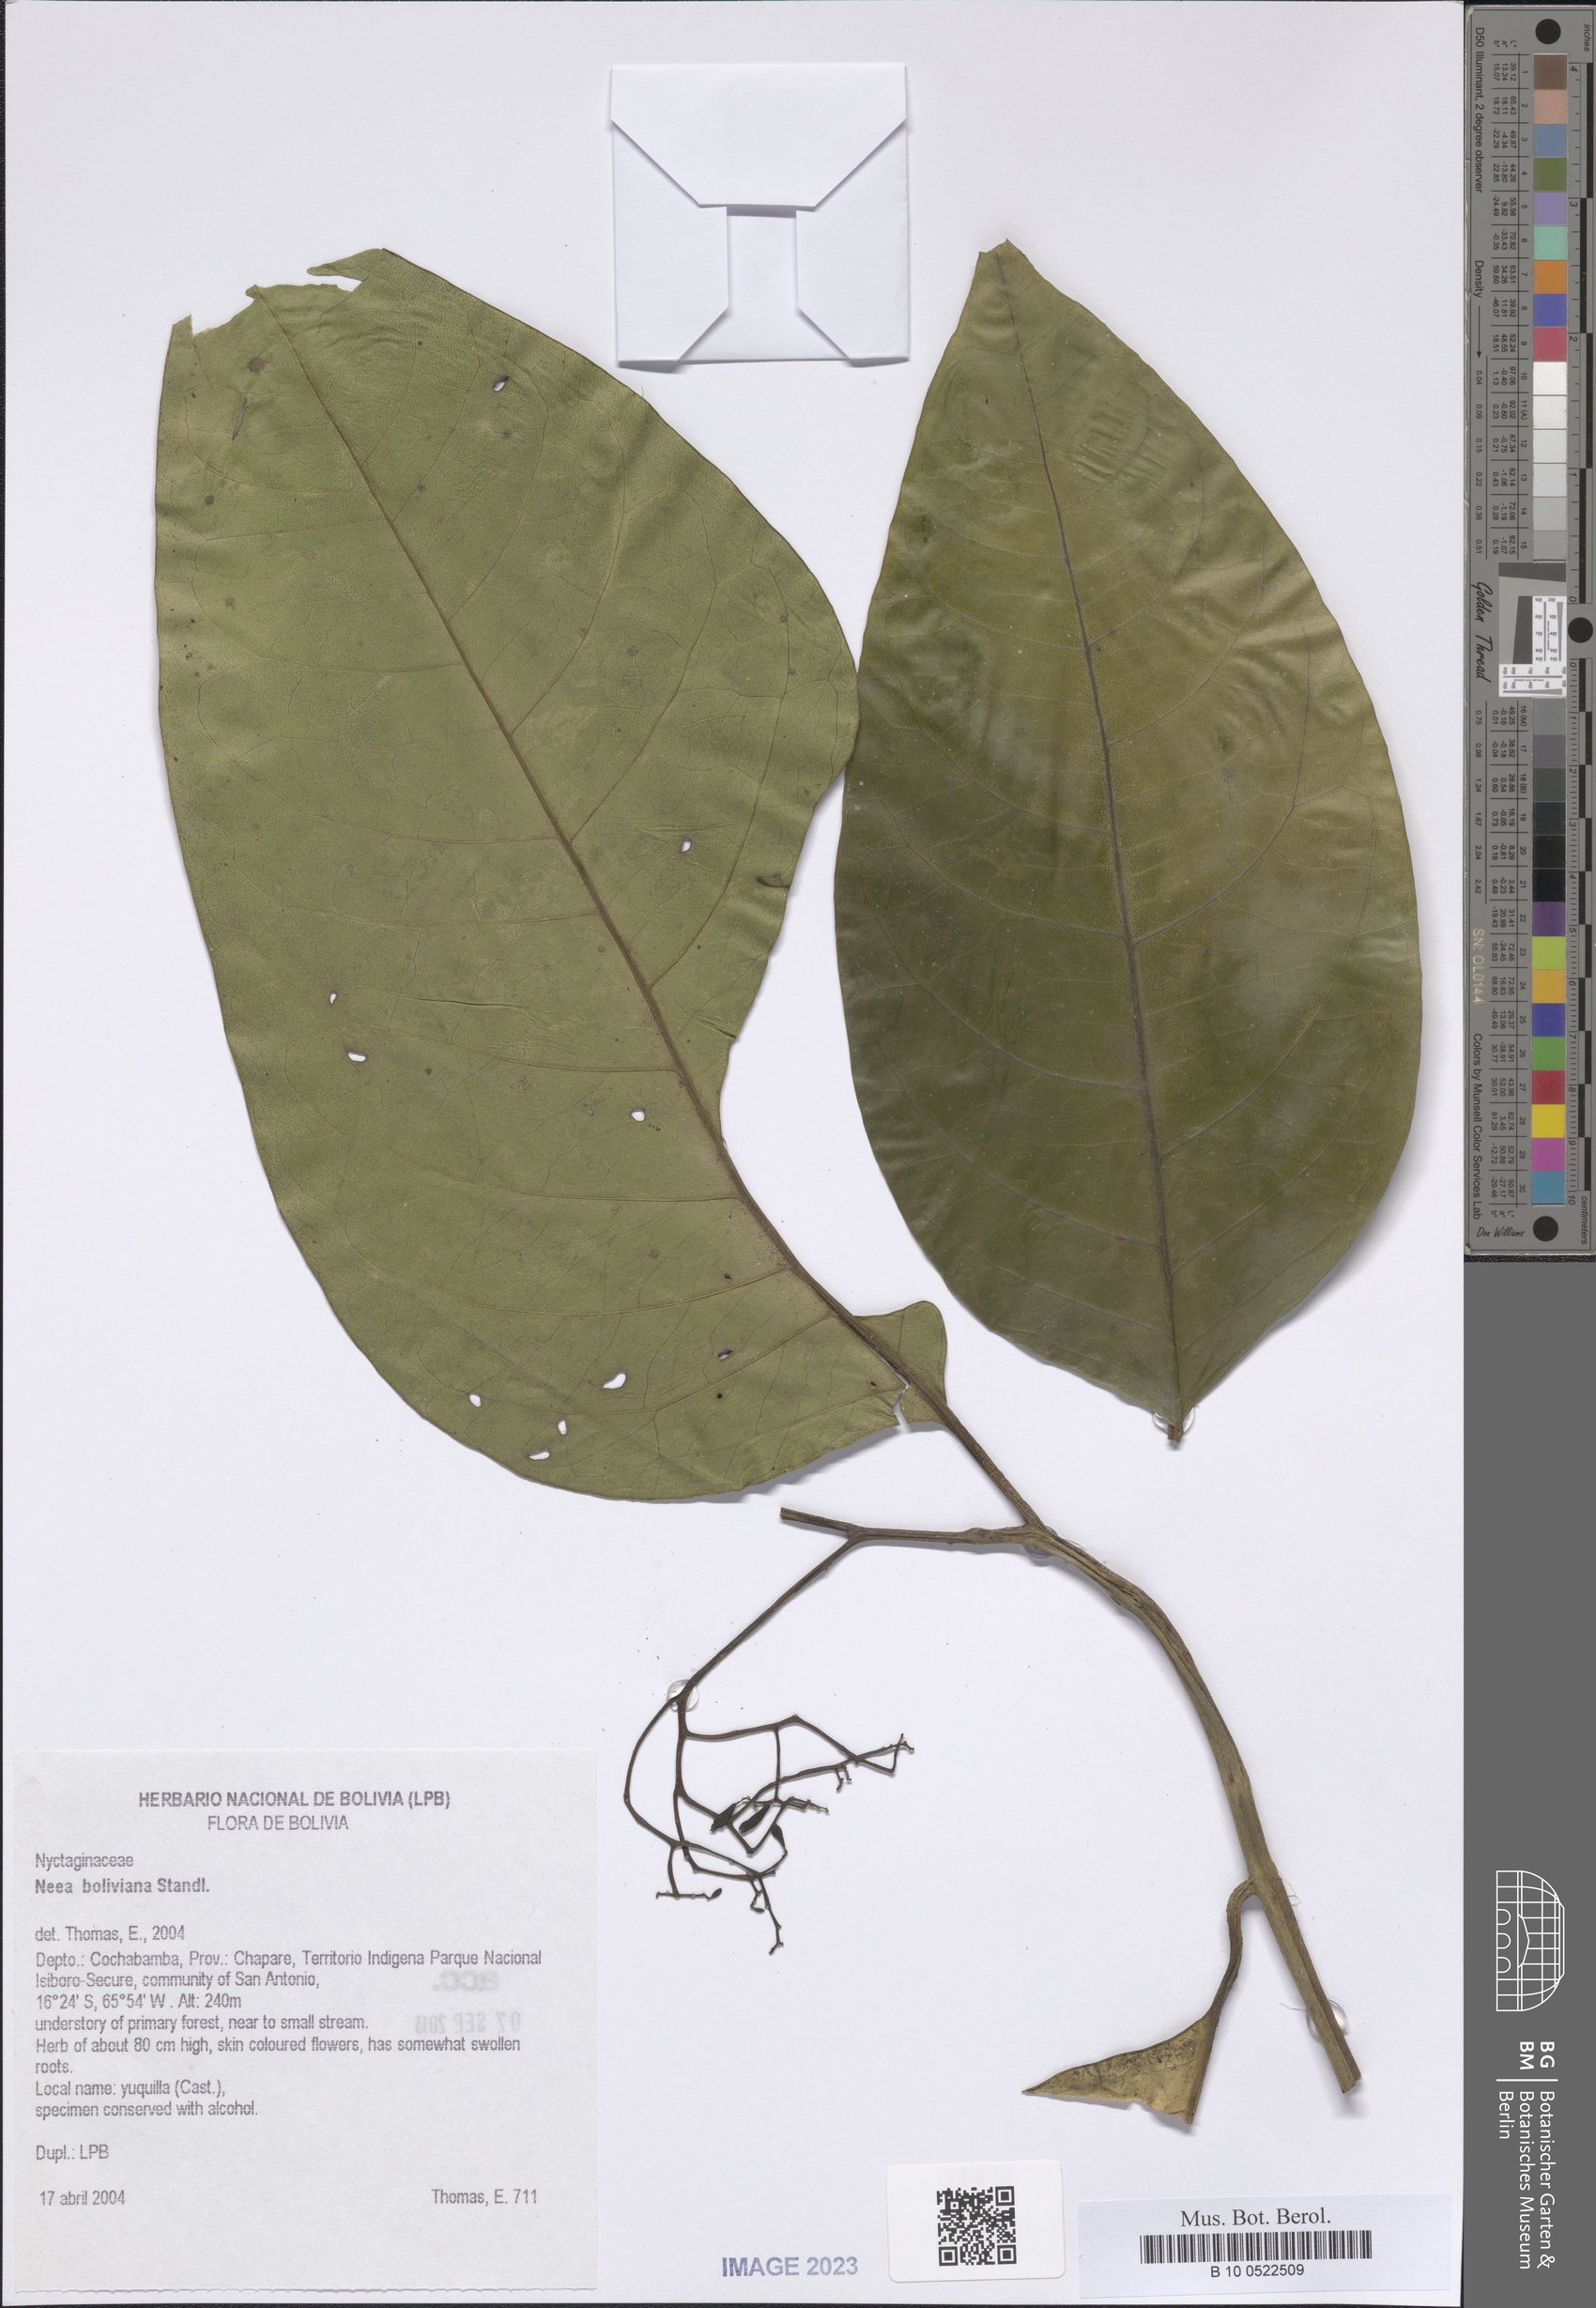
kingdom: Plantae
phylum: Tracheophyta
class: Magnoliopsida
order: Caryophyllales
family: Nyctaginaceae
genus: Neea
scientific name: Neea boliviana
